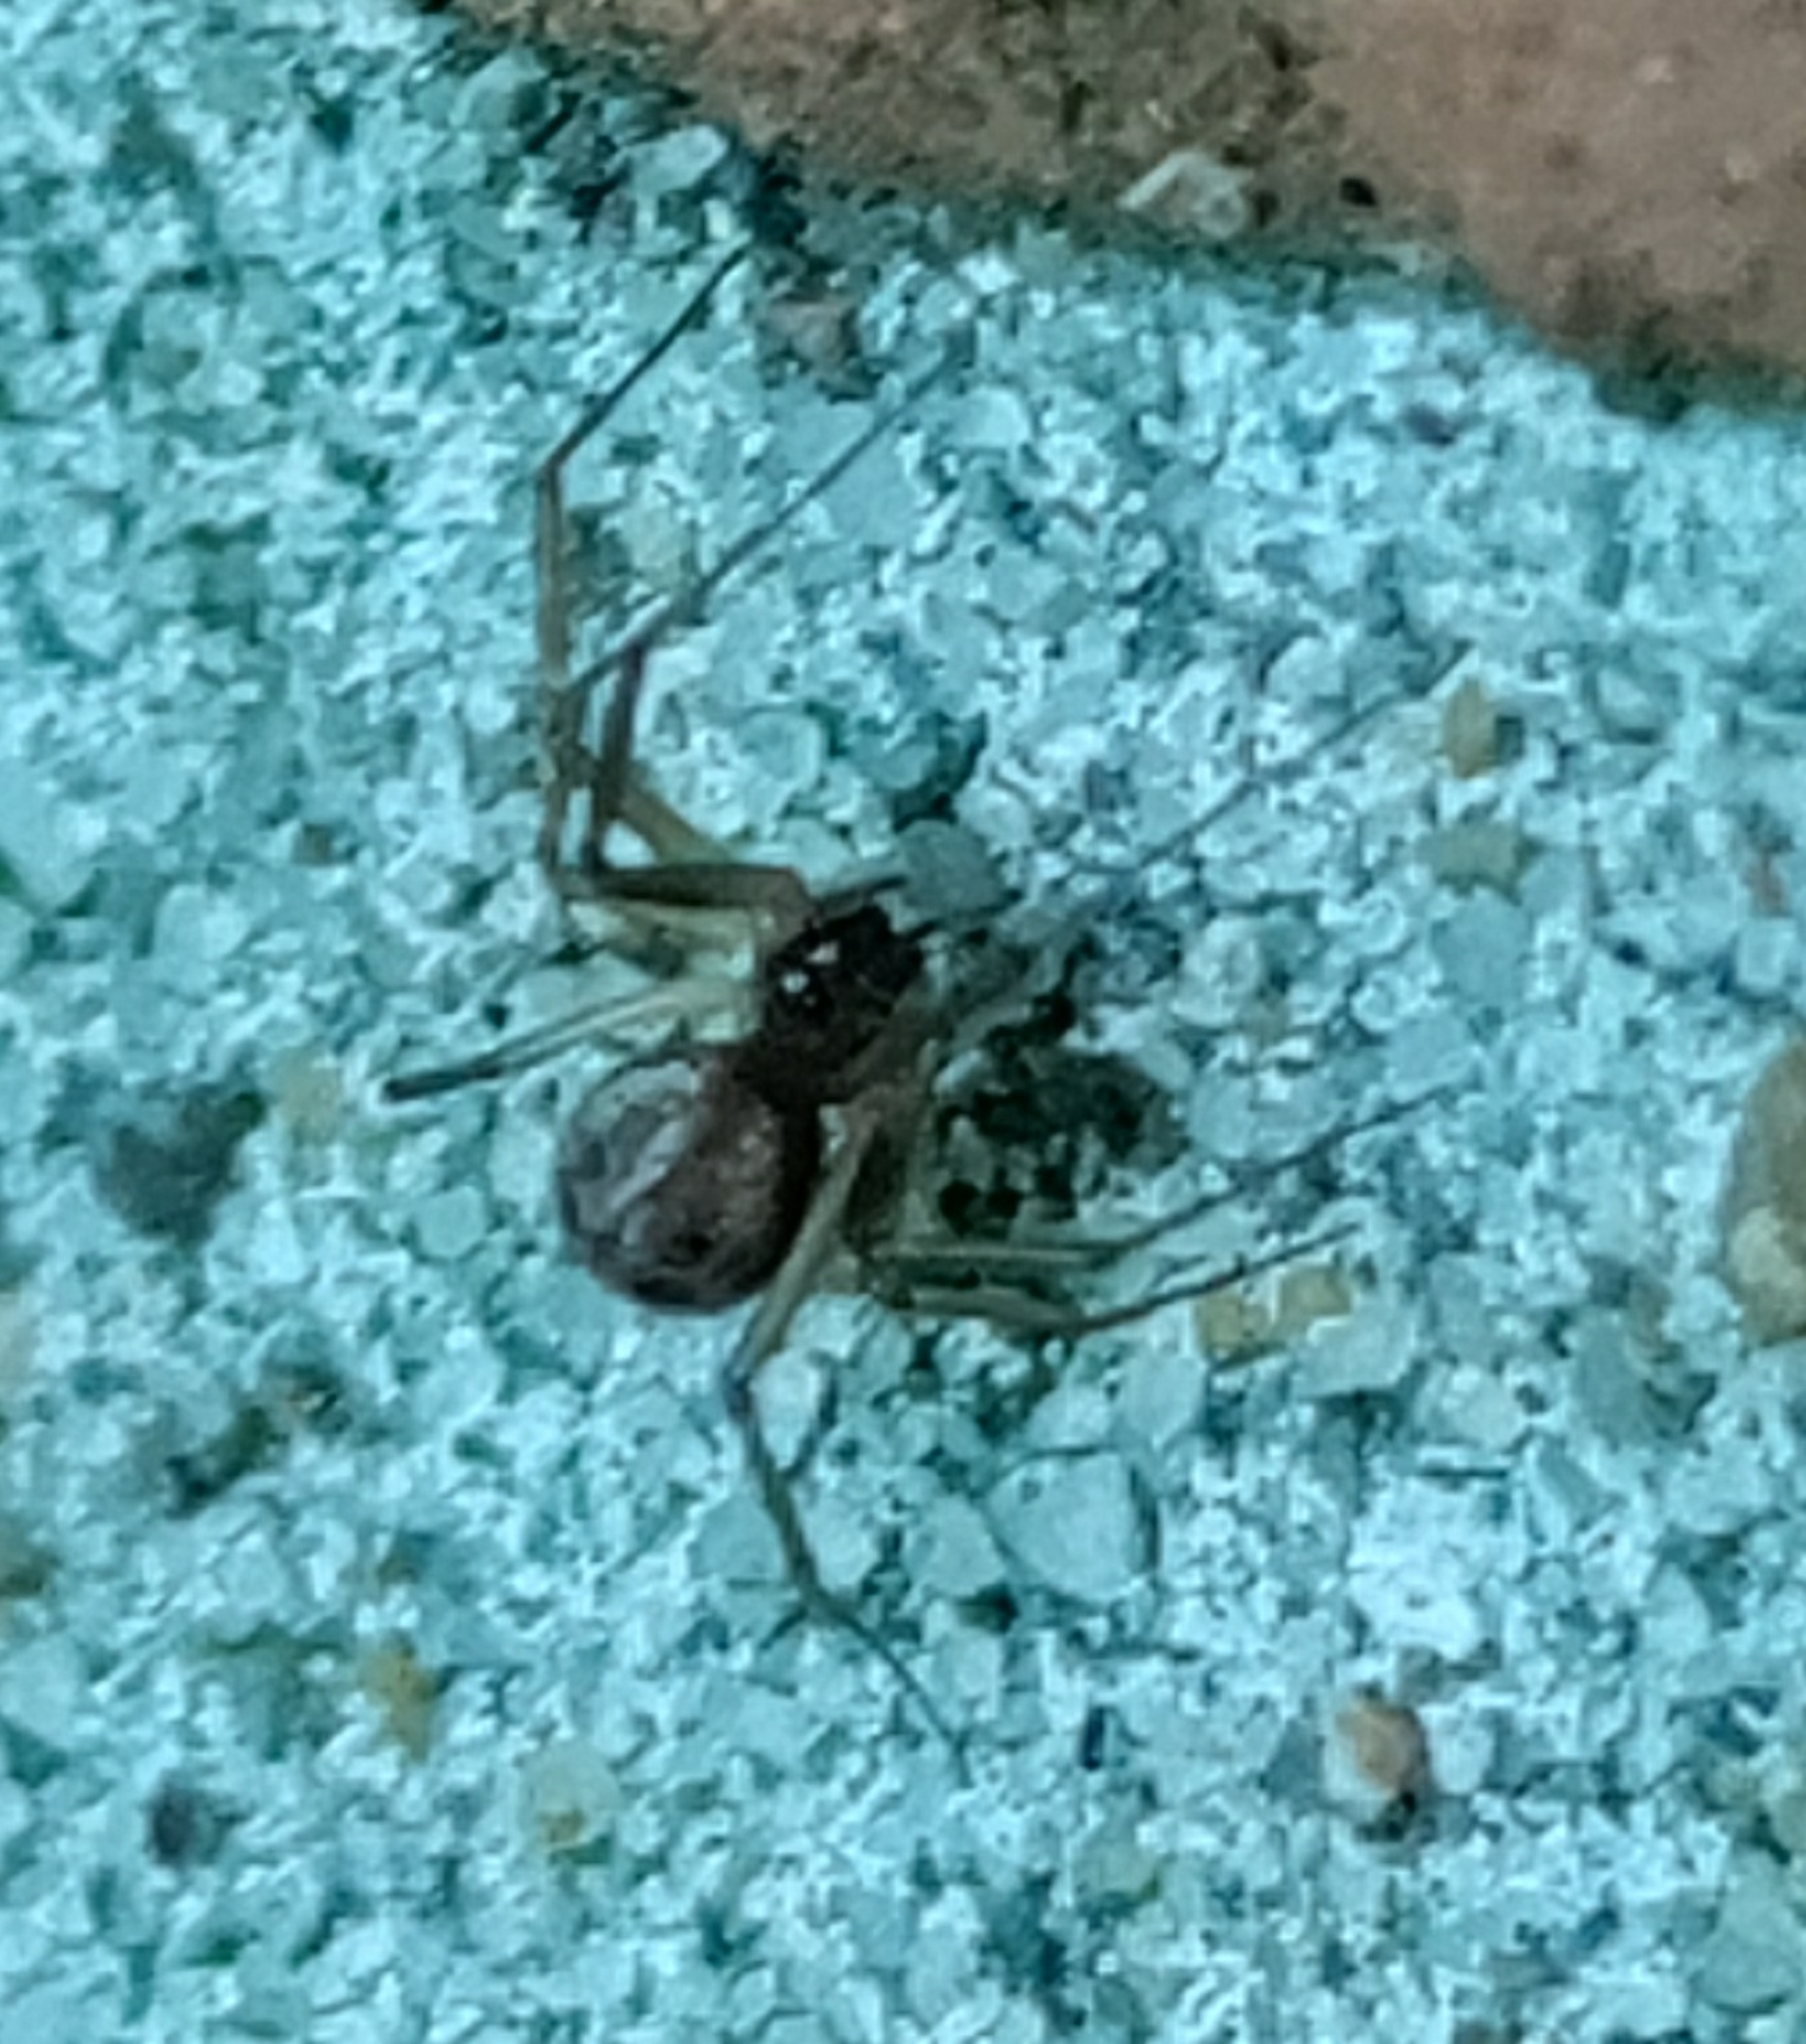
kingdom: Animalia
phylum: Arthropoda
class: Arachnida
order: Araneae
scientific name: Araneae
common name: Edderkopper
